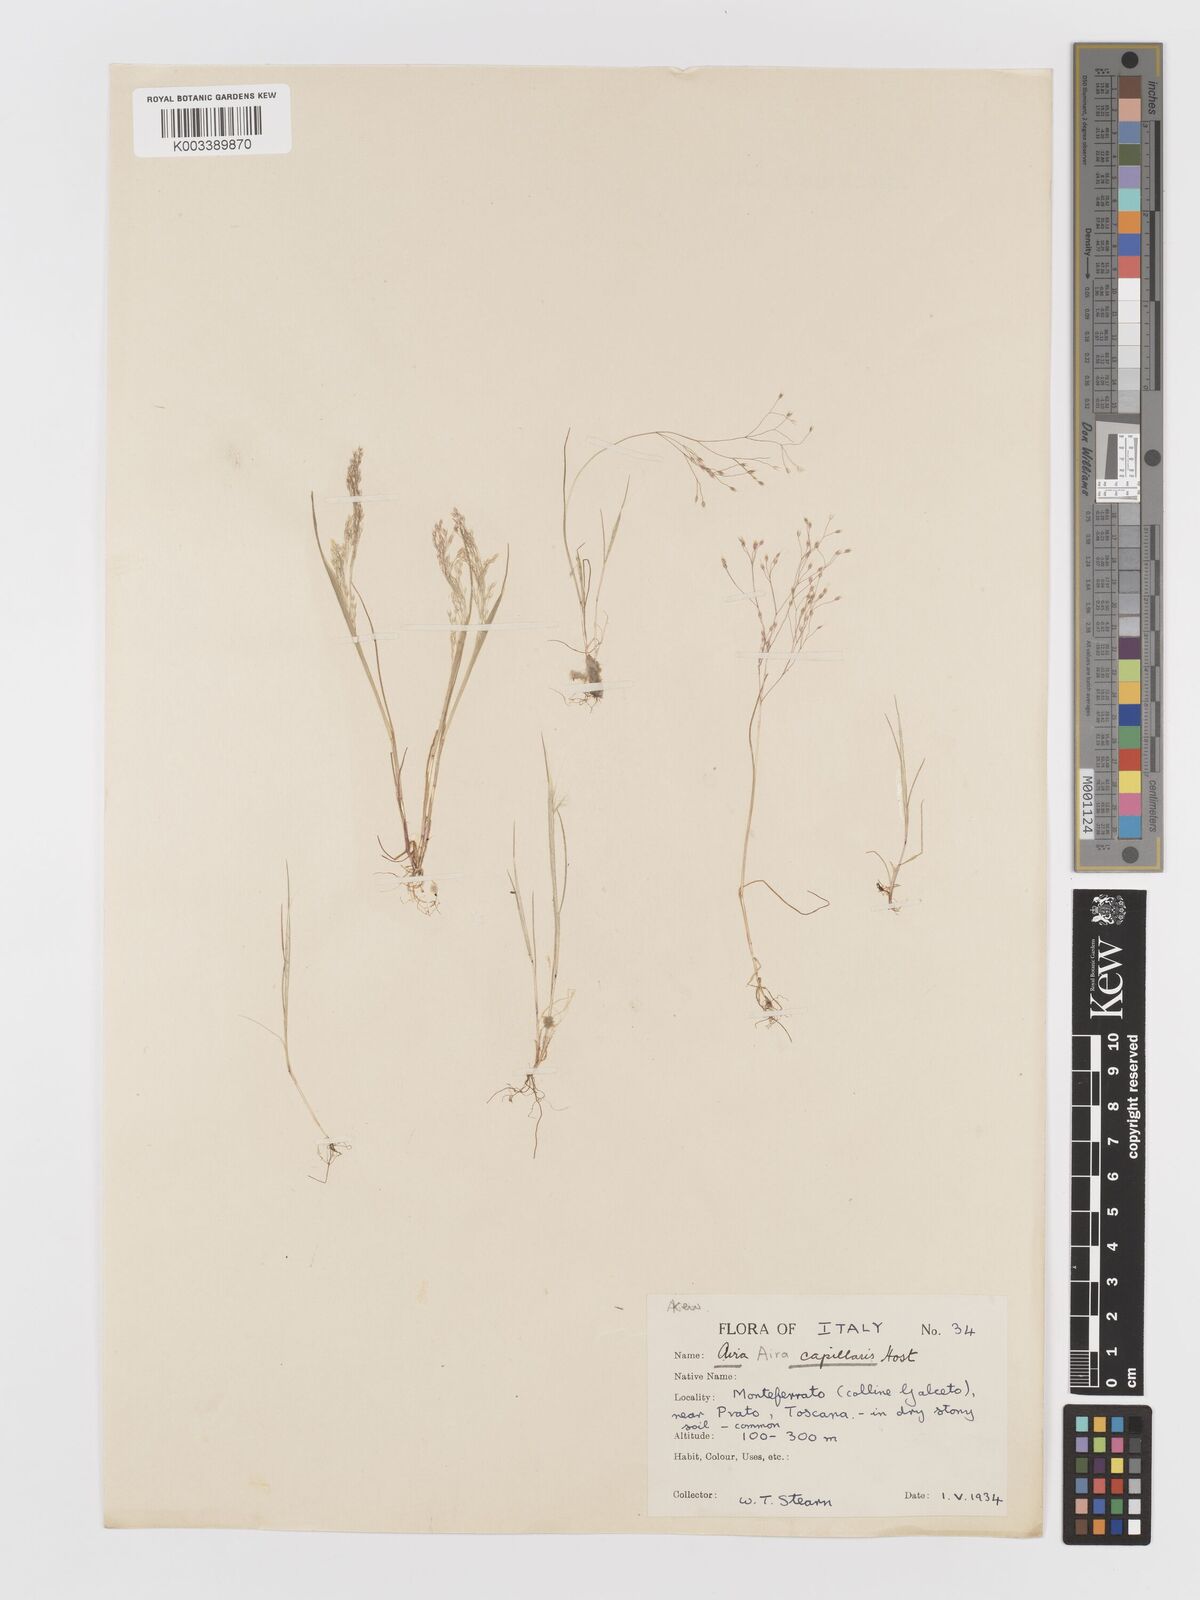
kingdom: Plantae
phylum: Tracheophyta
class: Liliopsida
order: Poales
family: Poaceae
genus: Aira
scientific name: Aira elegans
